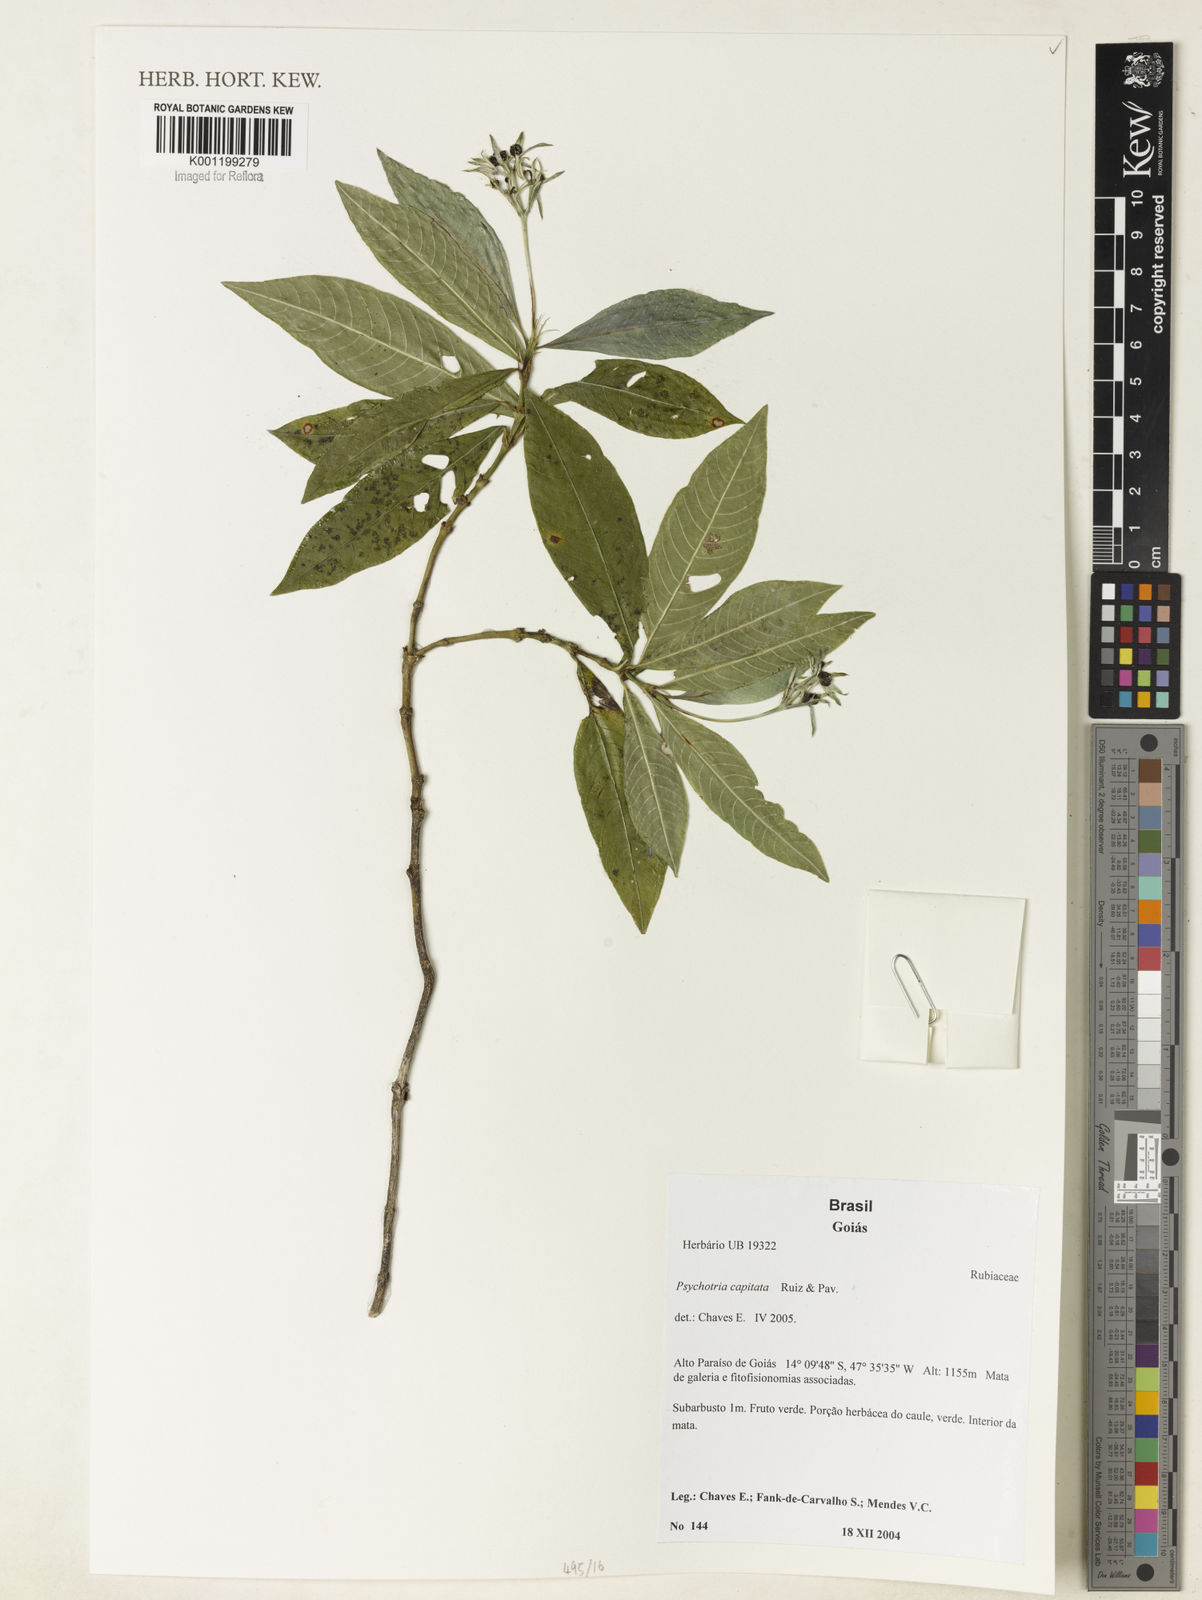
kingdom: Plantae
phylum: Tracheophyta
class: Magnoliopsida
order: Gentianales
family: Rubiaceae
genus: Palicourea
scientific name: Palicourea violacea
